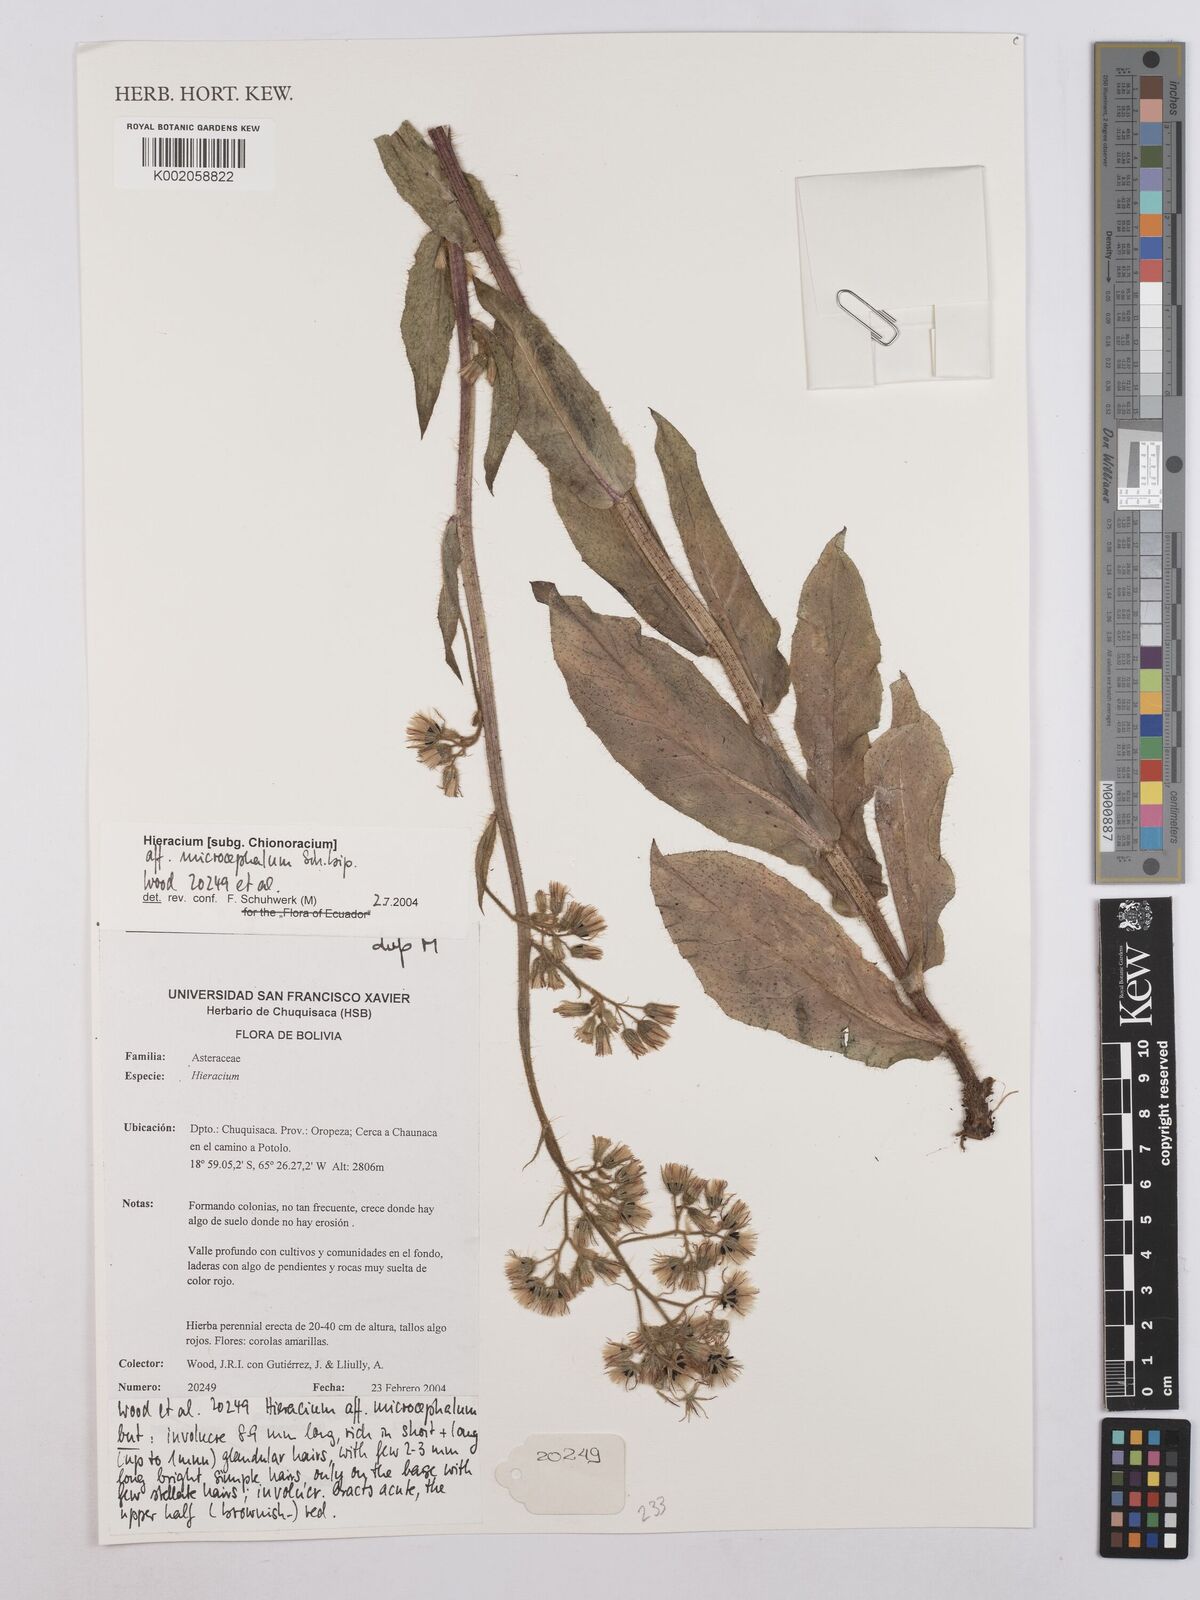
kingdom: Plantae
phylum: Tracheophyta
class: Magnoliopsida
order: Asterales
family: Asteraceae
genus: Hieracium
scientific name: Hieracium microcephalum
